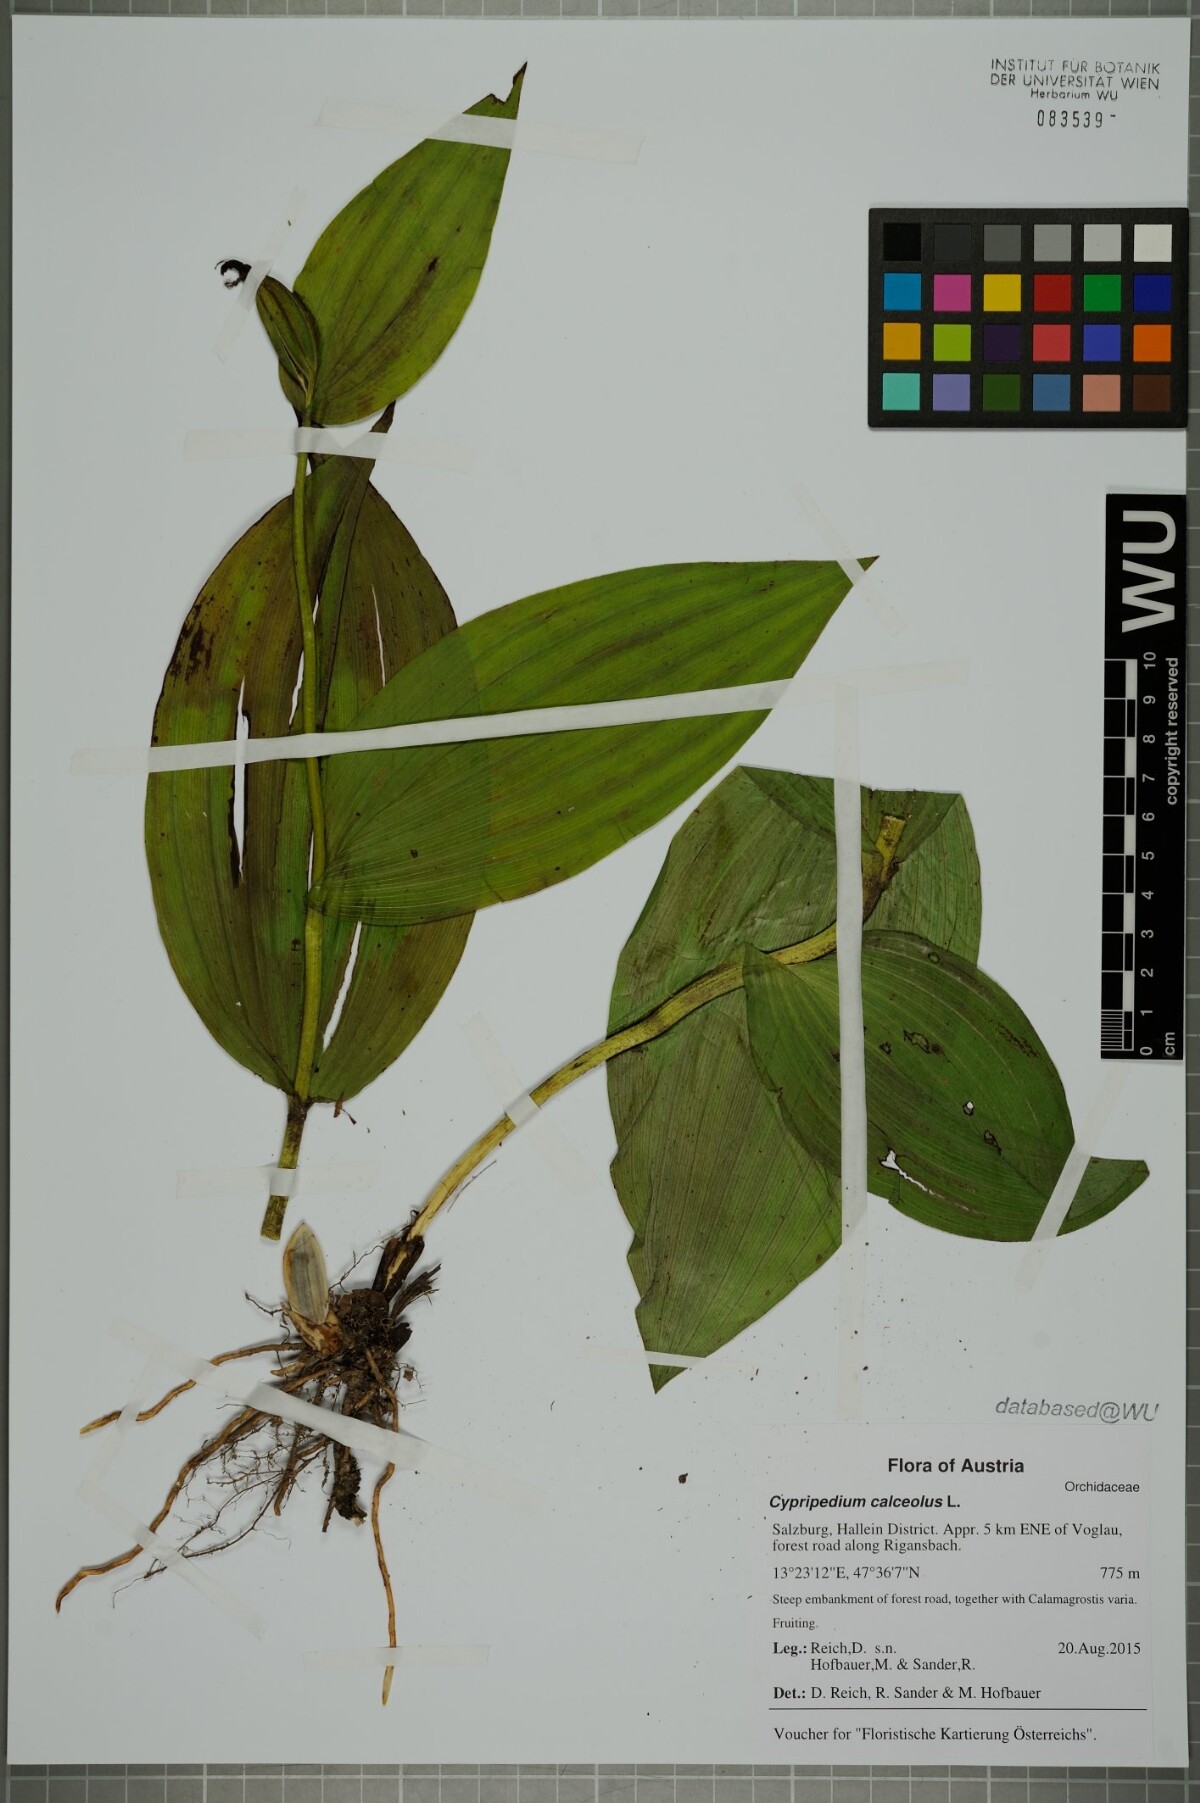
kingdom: Plantae
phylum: Tracheophyta
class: Liliopsida
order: Asparagales
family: Orchidaceae
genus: Cypripedium
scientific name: Cypripedium calceolus
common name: Lady's-slipper
